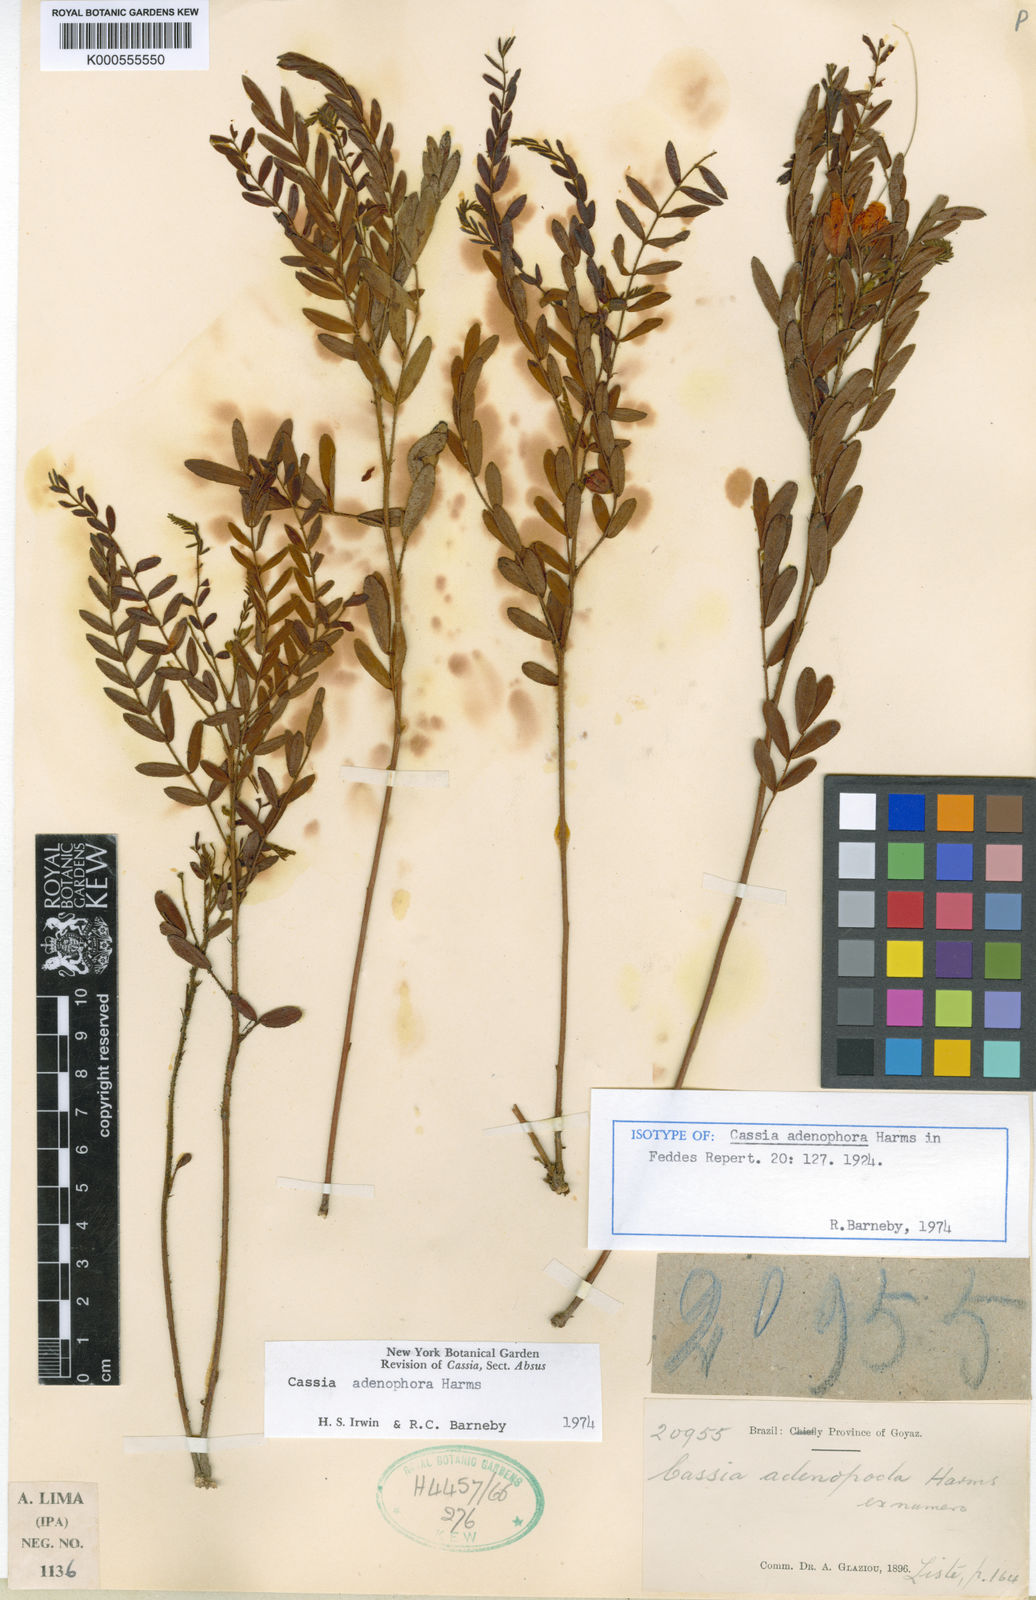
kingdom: Plantae
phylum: Tracheophyta
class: Magnoliopsida
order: Fabales
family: Fabaceae
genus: Chamaecrista
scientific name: Chamaecrista adenophora
